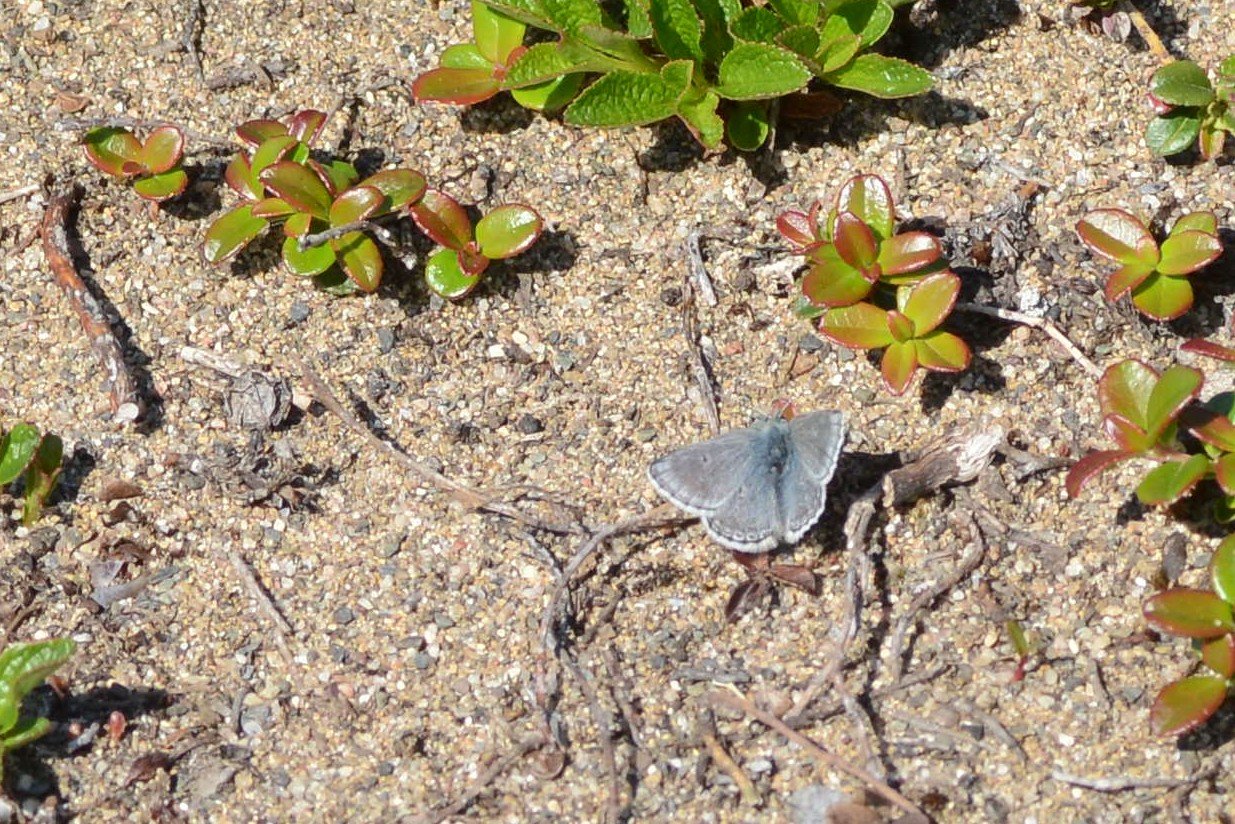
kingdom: Animalia
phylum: Arthropoda
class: Insecta
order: Lepidoptera
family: Lycaenidae
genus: Agriades
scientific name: Agriades glandon
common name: Arctic Blue
